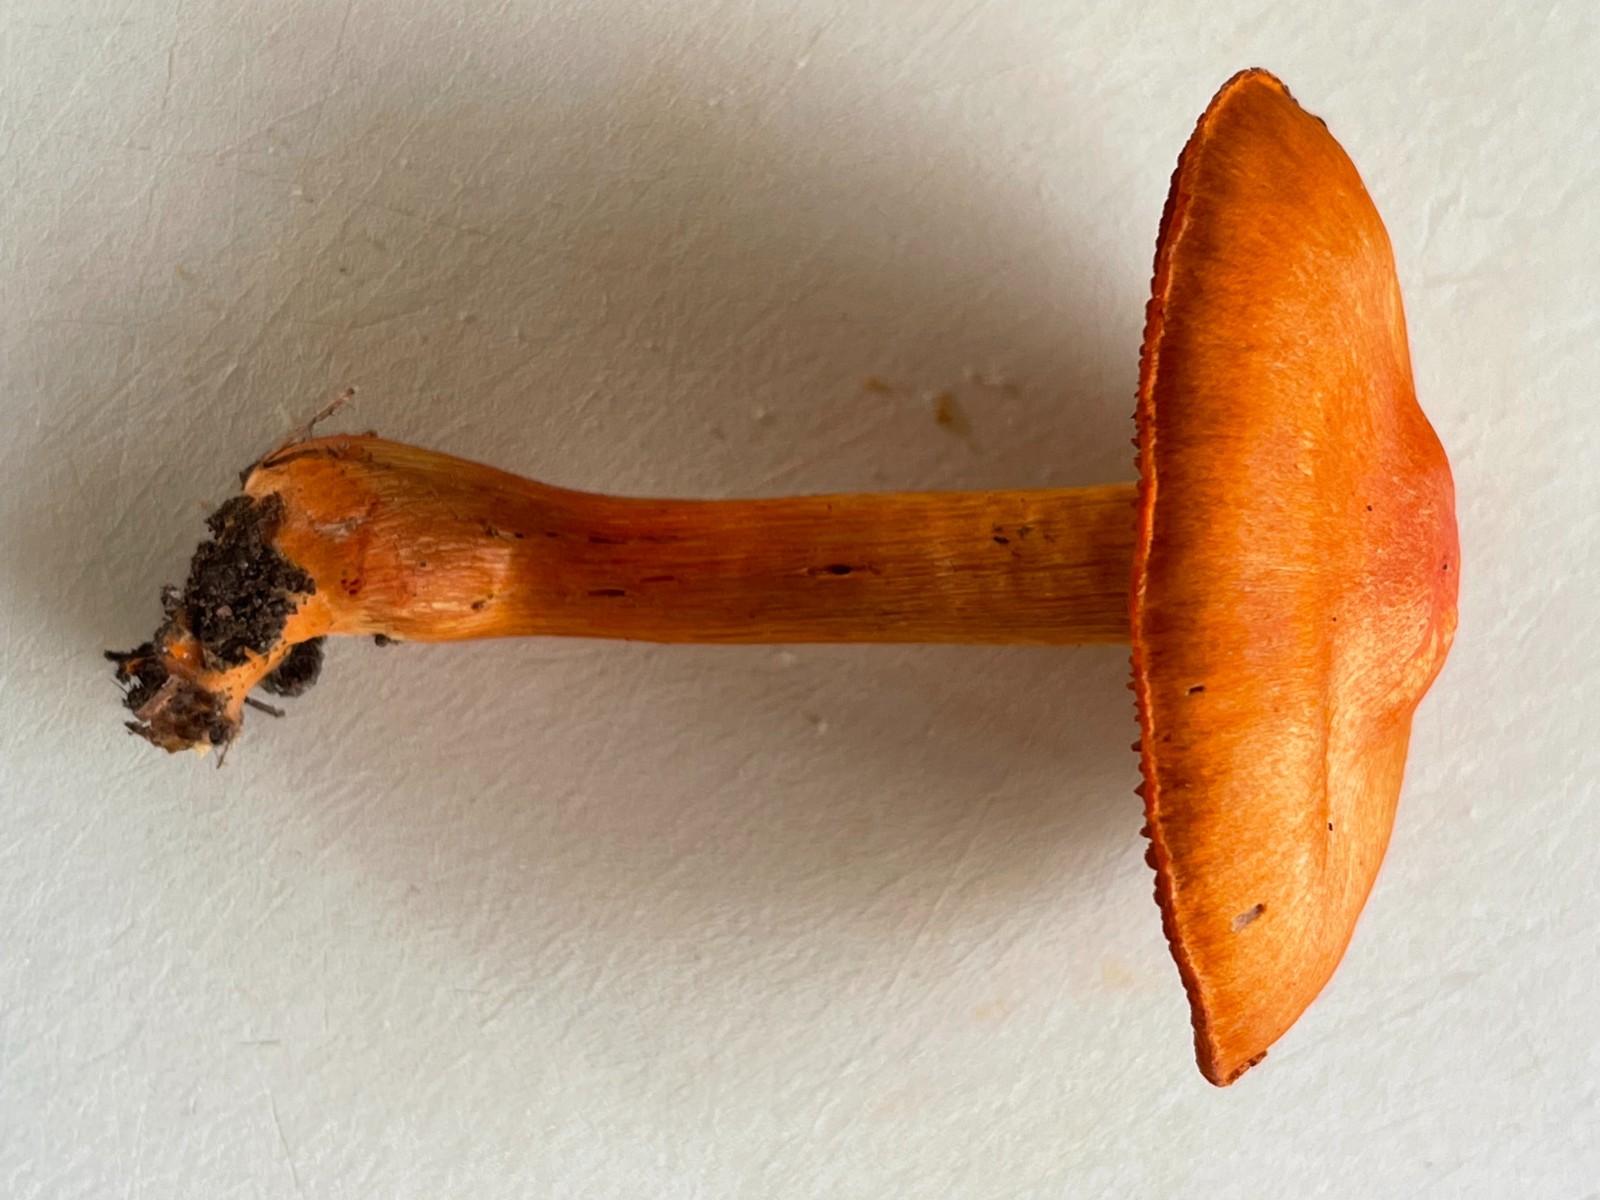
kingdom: Fungi
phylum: Basidiomycota
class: Agaricomycetes
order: Agaricales
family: Cortinariaceae
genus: Cortinarius
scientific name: Cortinarius cinnabarinus
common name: cinnober-slørhat
